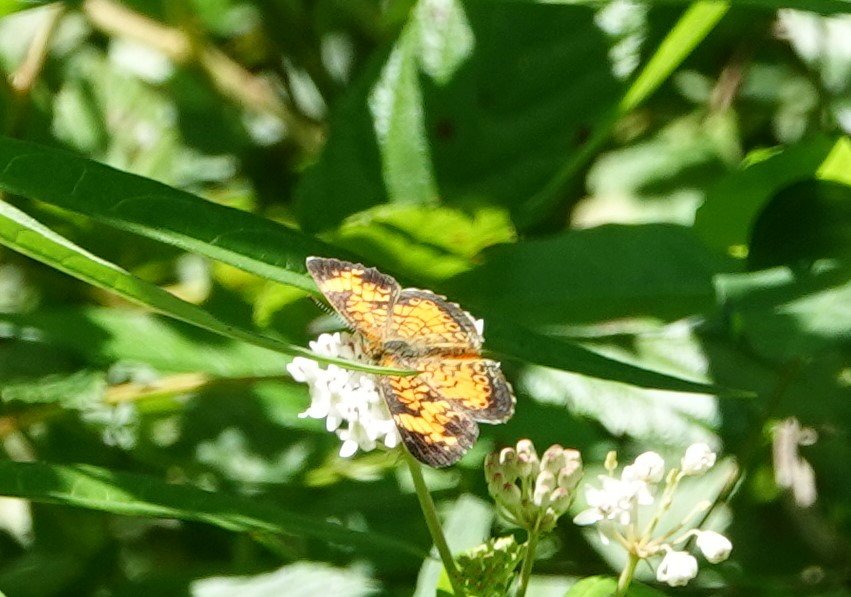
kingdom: Animalia
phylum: Arthropoda
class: Insecta
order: Lepidoptera
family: Nymphalidae
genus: Phyciodes
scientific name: Phyciodes tharos
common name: Pearl Crescent
